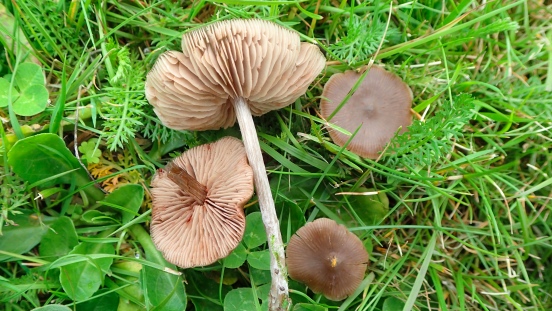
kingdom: Fungi
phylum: Basidiomycota
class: Agaricomycetes
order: Agaricales
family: Entolomataceae
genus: Entoloma
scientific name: Entoloma sericeum
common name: silkeglinsende rødblad
